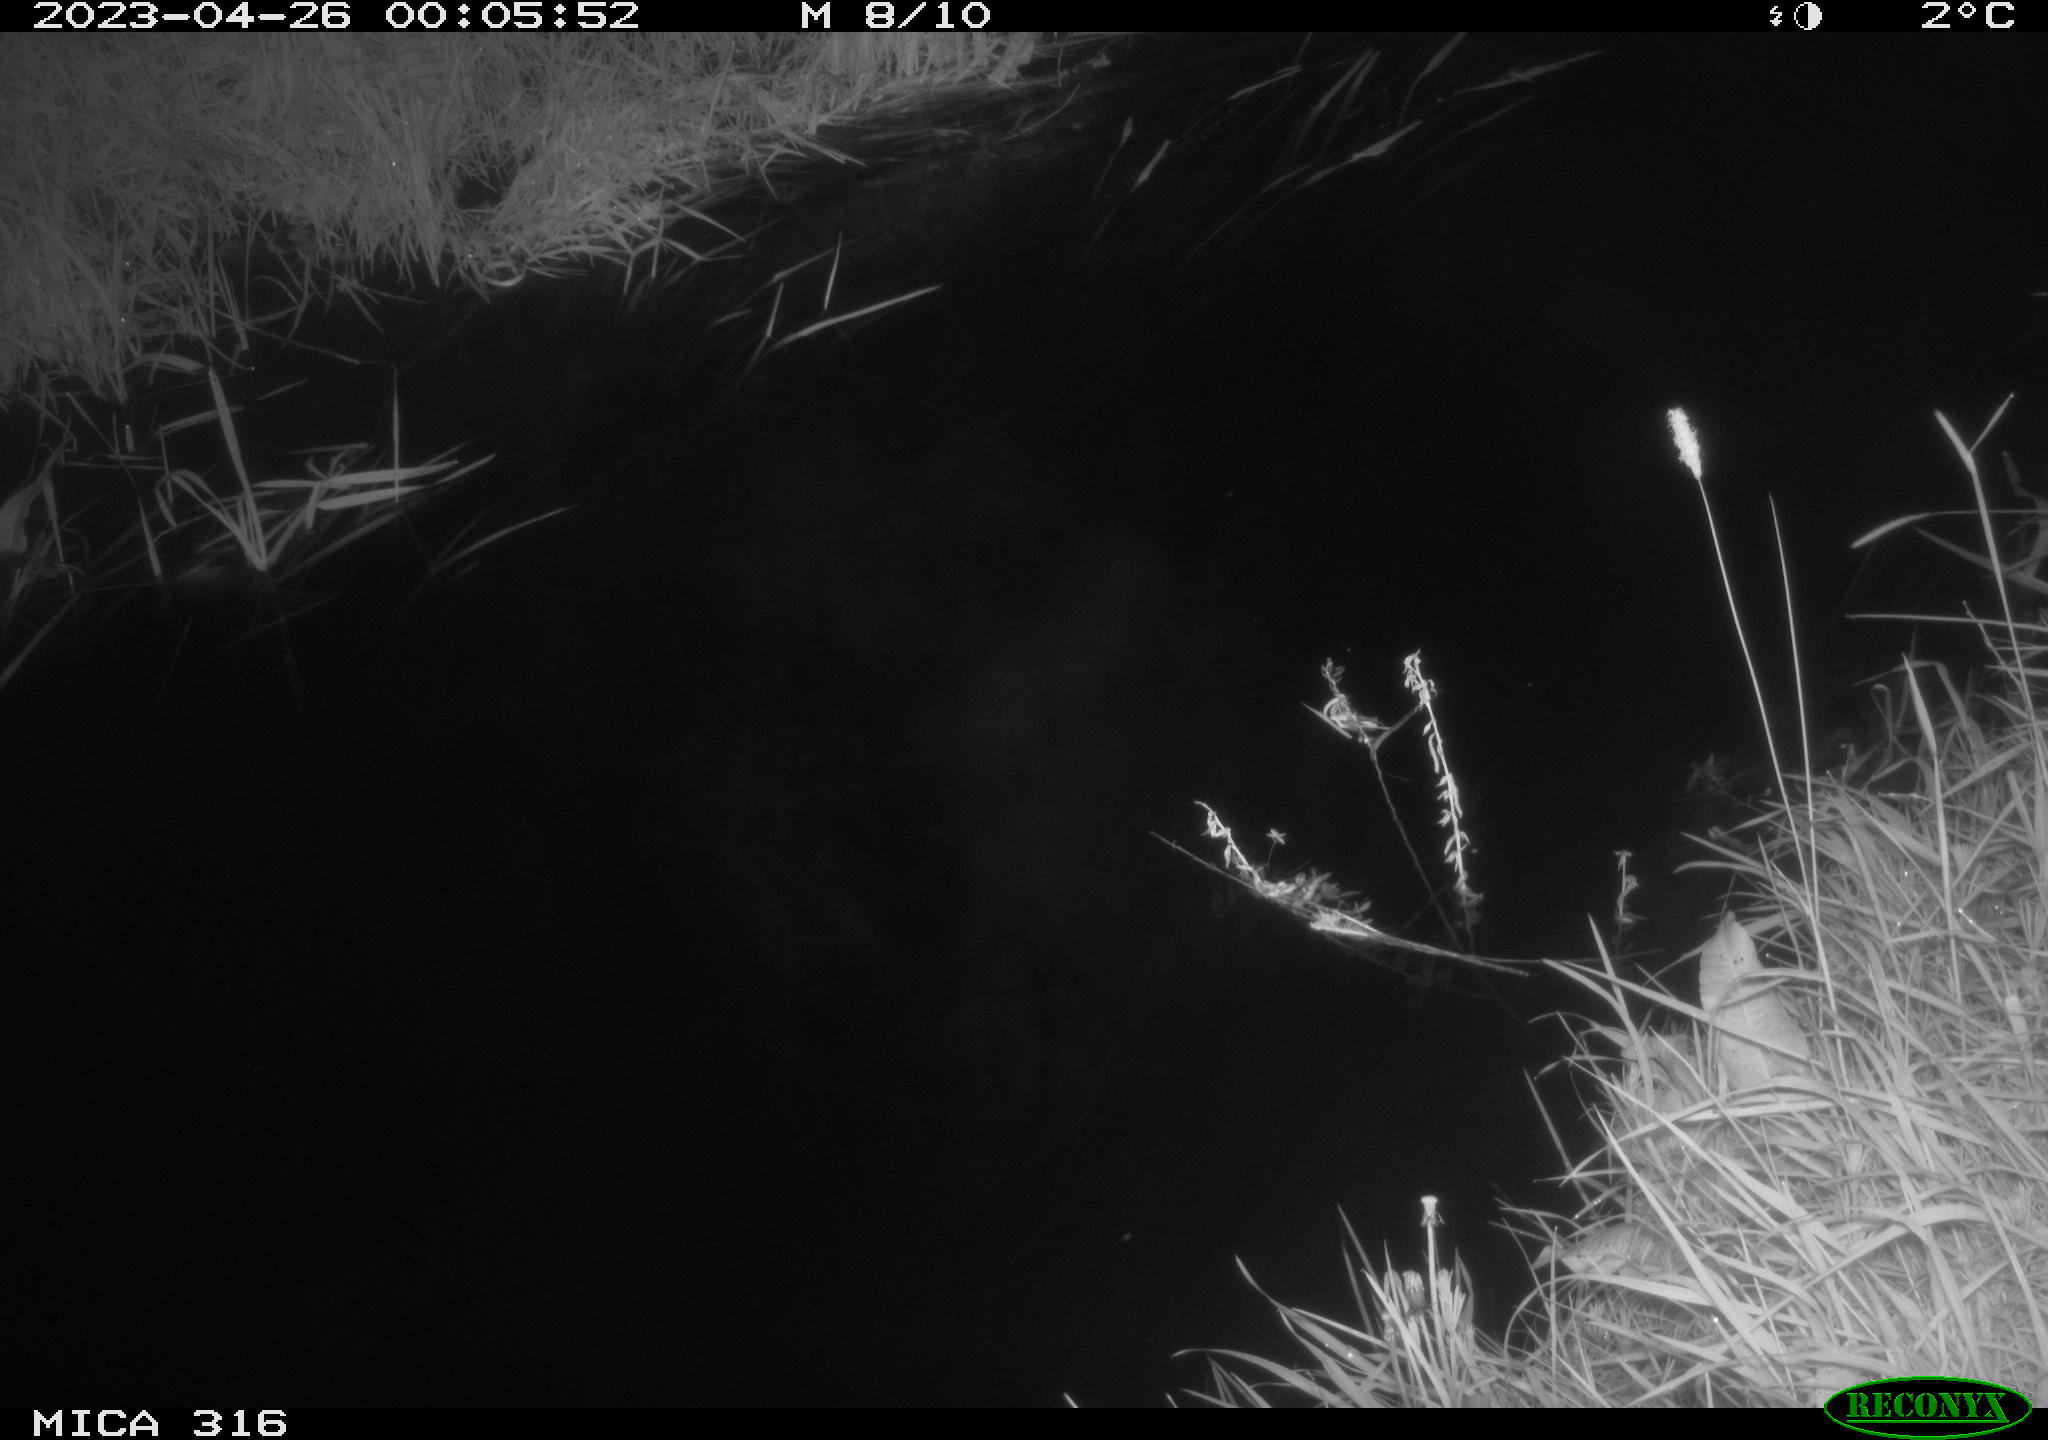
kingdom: Animalia
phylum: Chordata
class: Aves
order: Anseriformes
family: Anatidae
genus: Anas
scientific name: Anas
